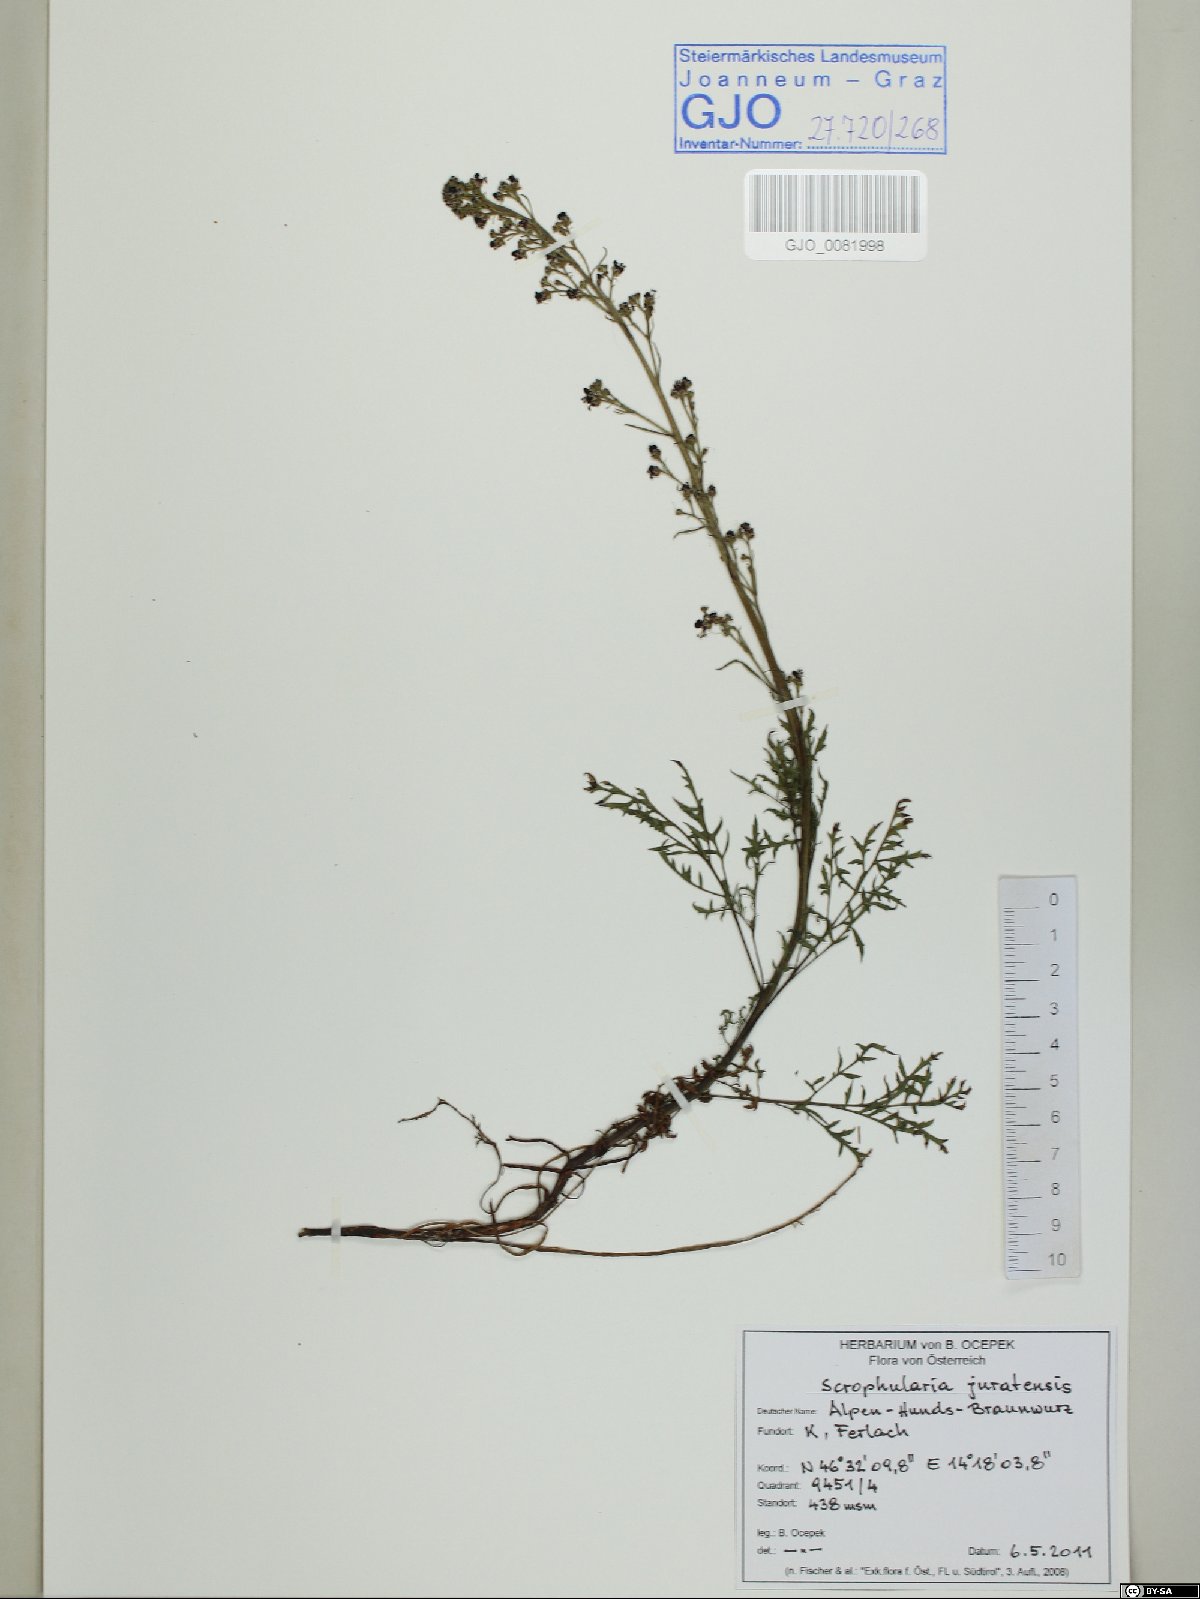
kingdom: Plantae
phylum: Tracheophyta
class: Magnoliopsida
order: Lamiales
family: Scrophulariaceae
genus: Scrophularia
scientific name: Scrophularia canina
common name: French figwort
